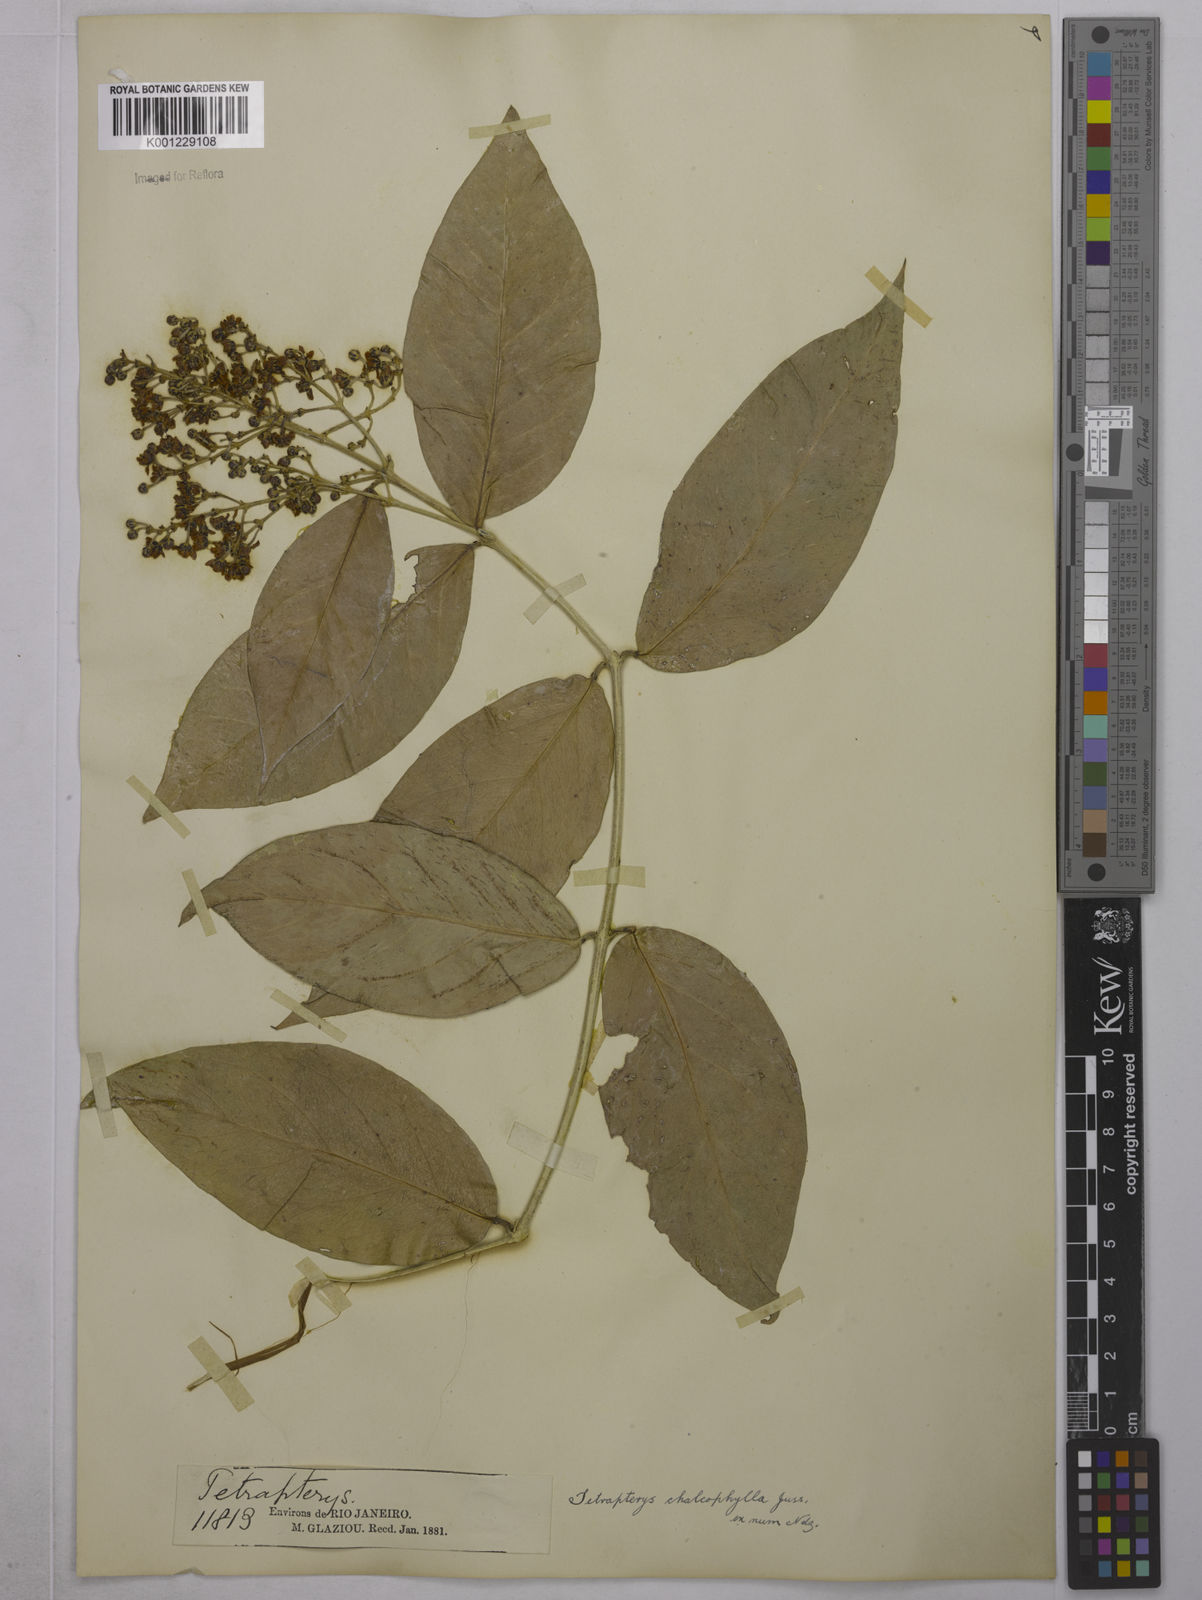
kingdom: Plantae
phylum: Tracheophyta
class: Magnoliopsida
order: Malpighiales
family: Malpighiaceae
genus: Niedenzuella
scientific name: Niedenzuella sericea
